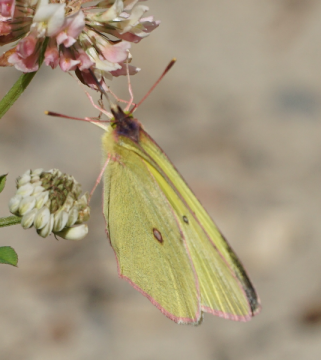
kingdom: Animalia
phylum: Arthropoda
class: Insecta
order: Lepidoptera
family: Pieridae
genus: Colias
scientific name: Colias interior
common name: Pink-edged Sulphur
